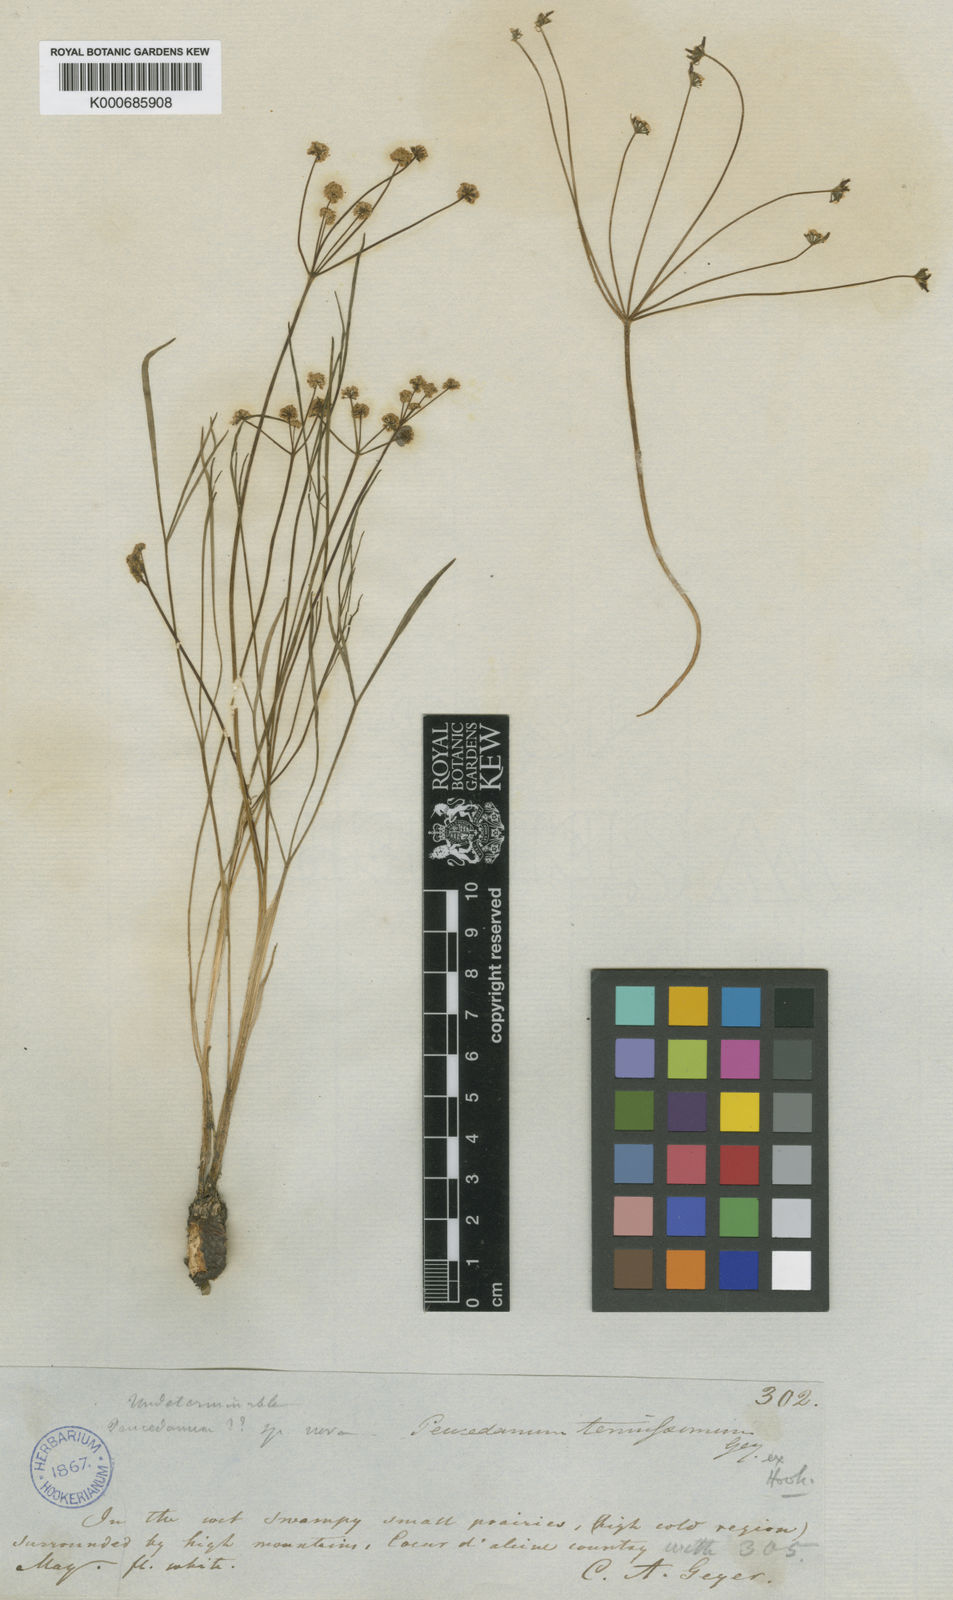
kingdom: Plantae
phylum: Tracheophyta
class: Magnoliopsida
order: Apiales
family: Apiaceae
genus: Lomatium
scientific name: Lomatium tenuissimum
